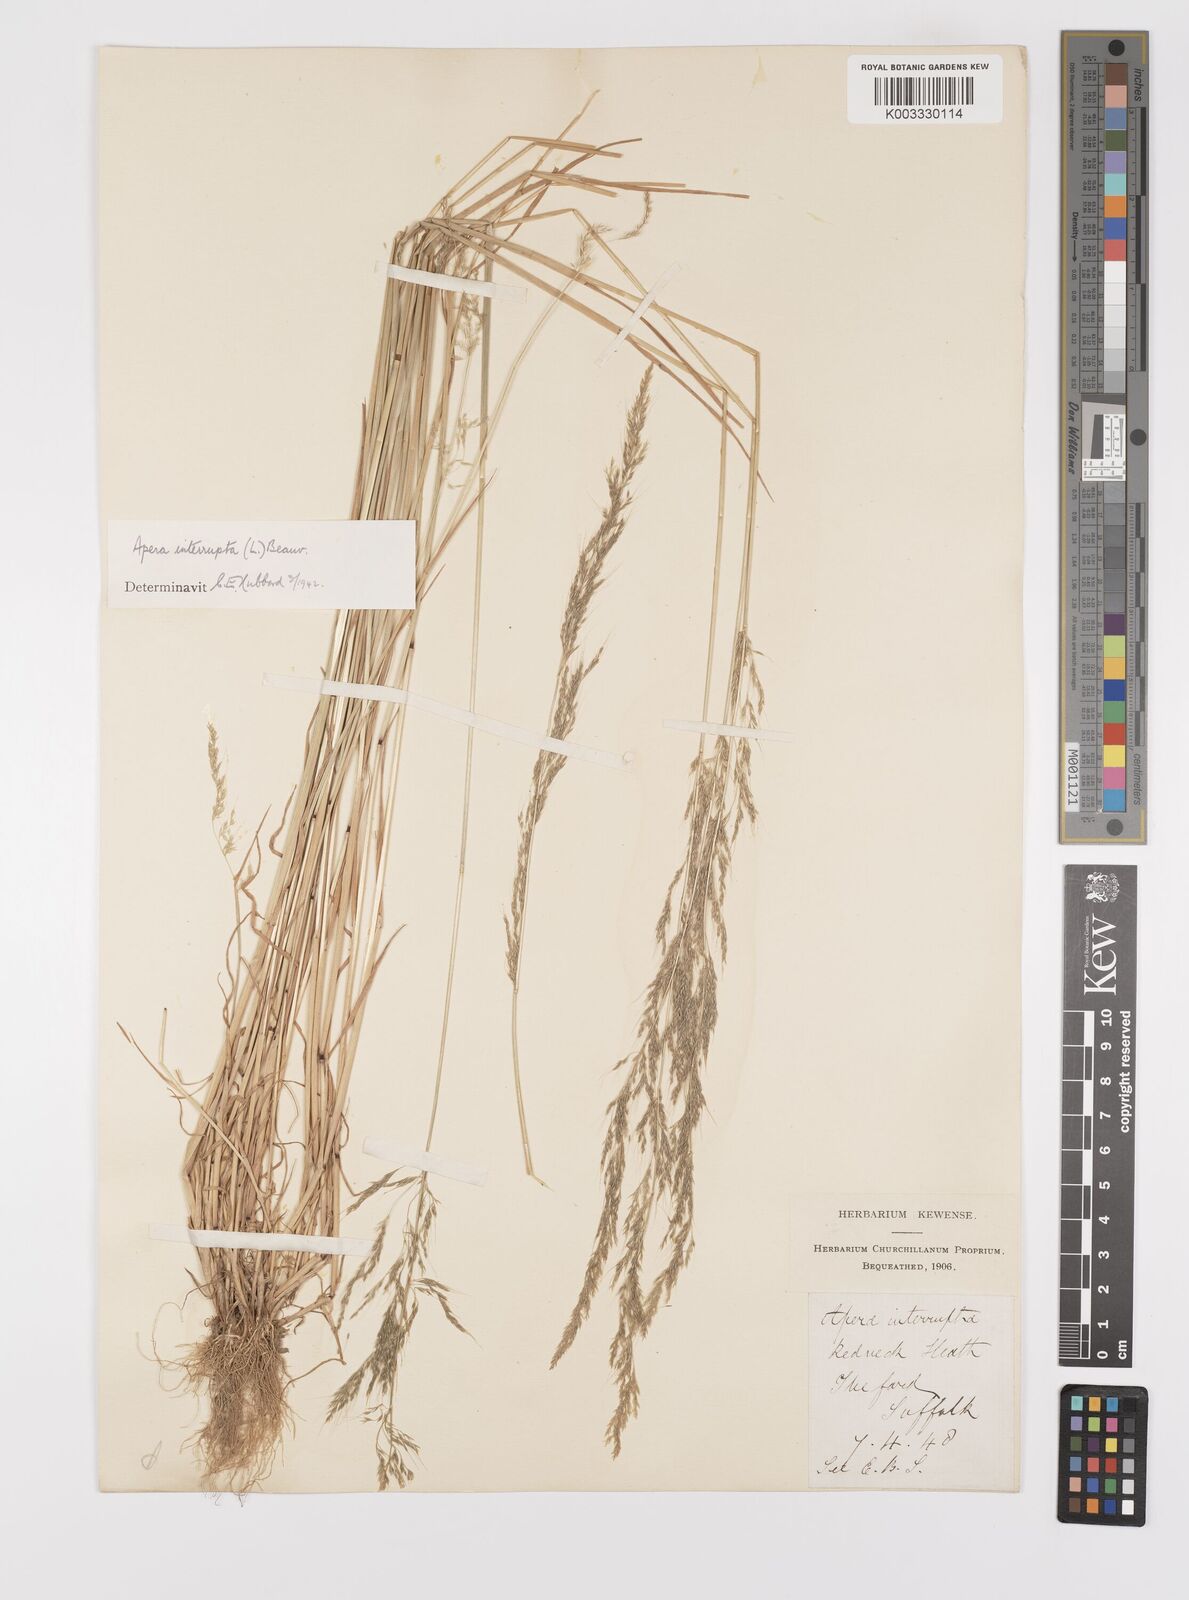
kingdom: Plantae
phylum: Tracheophyta
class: Liliopsida
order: Poales
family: Poaceae
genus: Apera
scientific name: Apera interrupta
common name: Dense silky-bent
